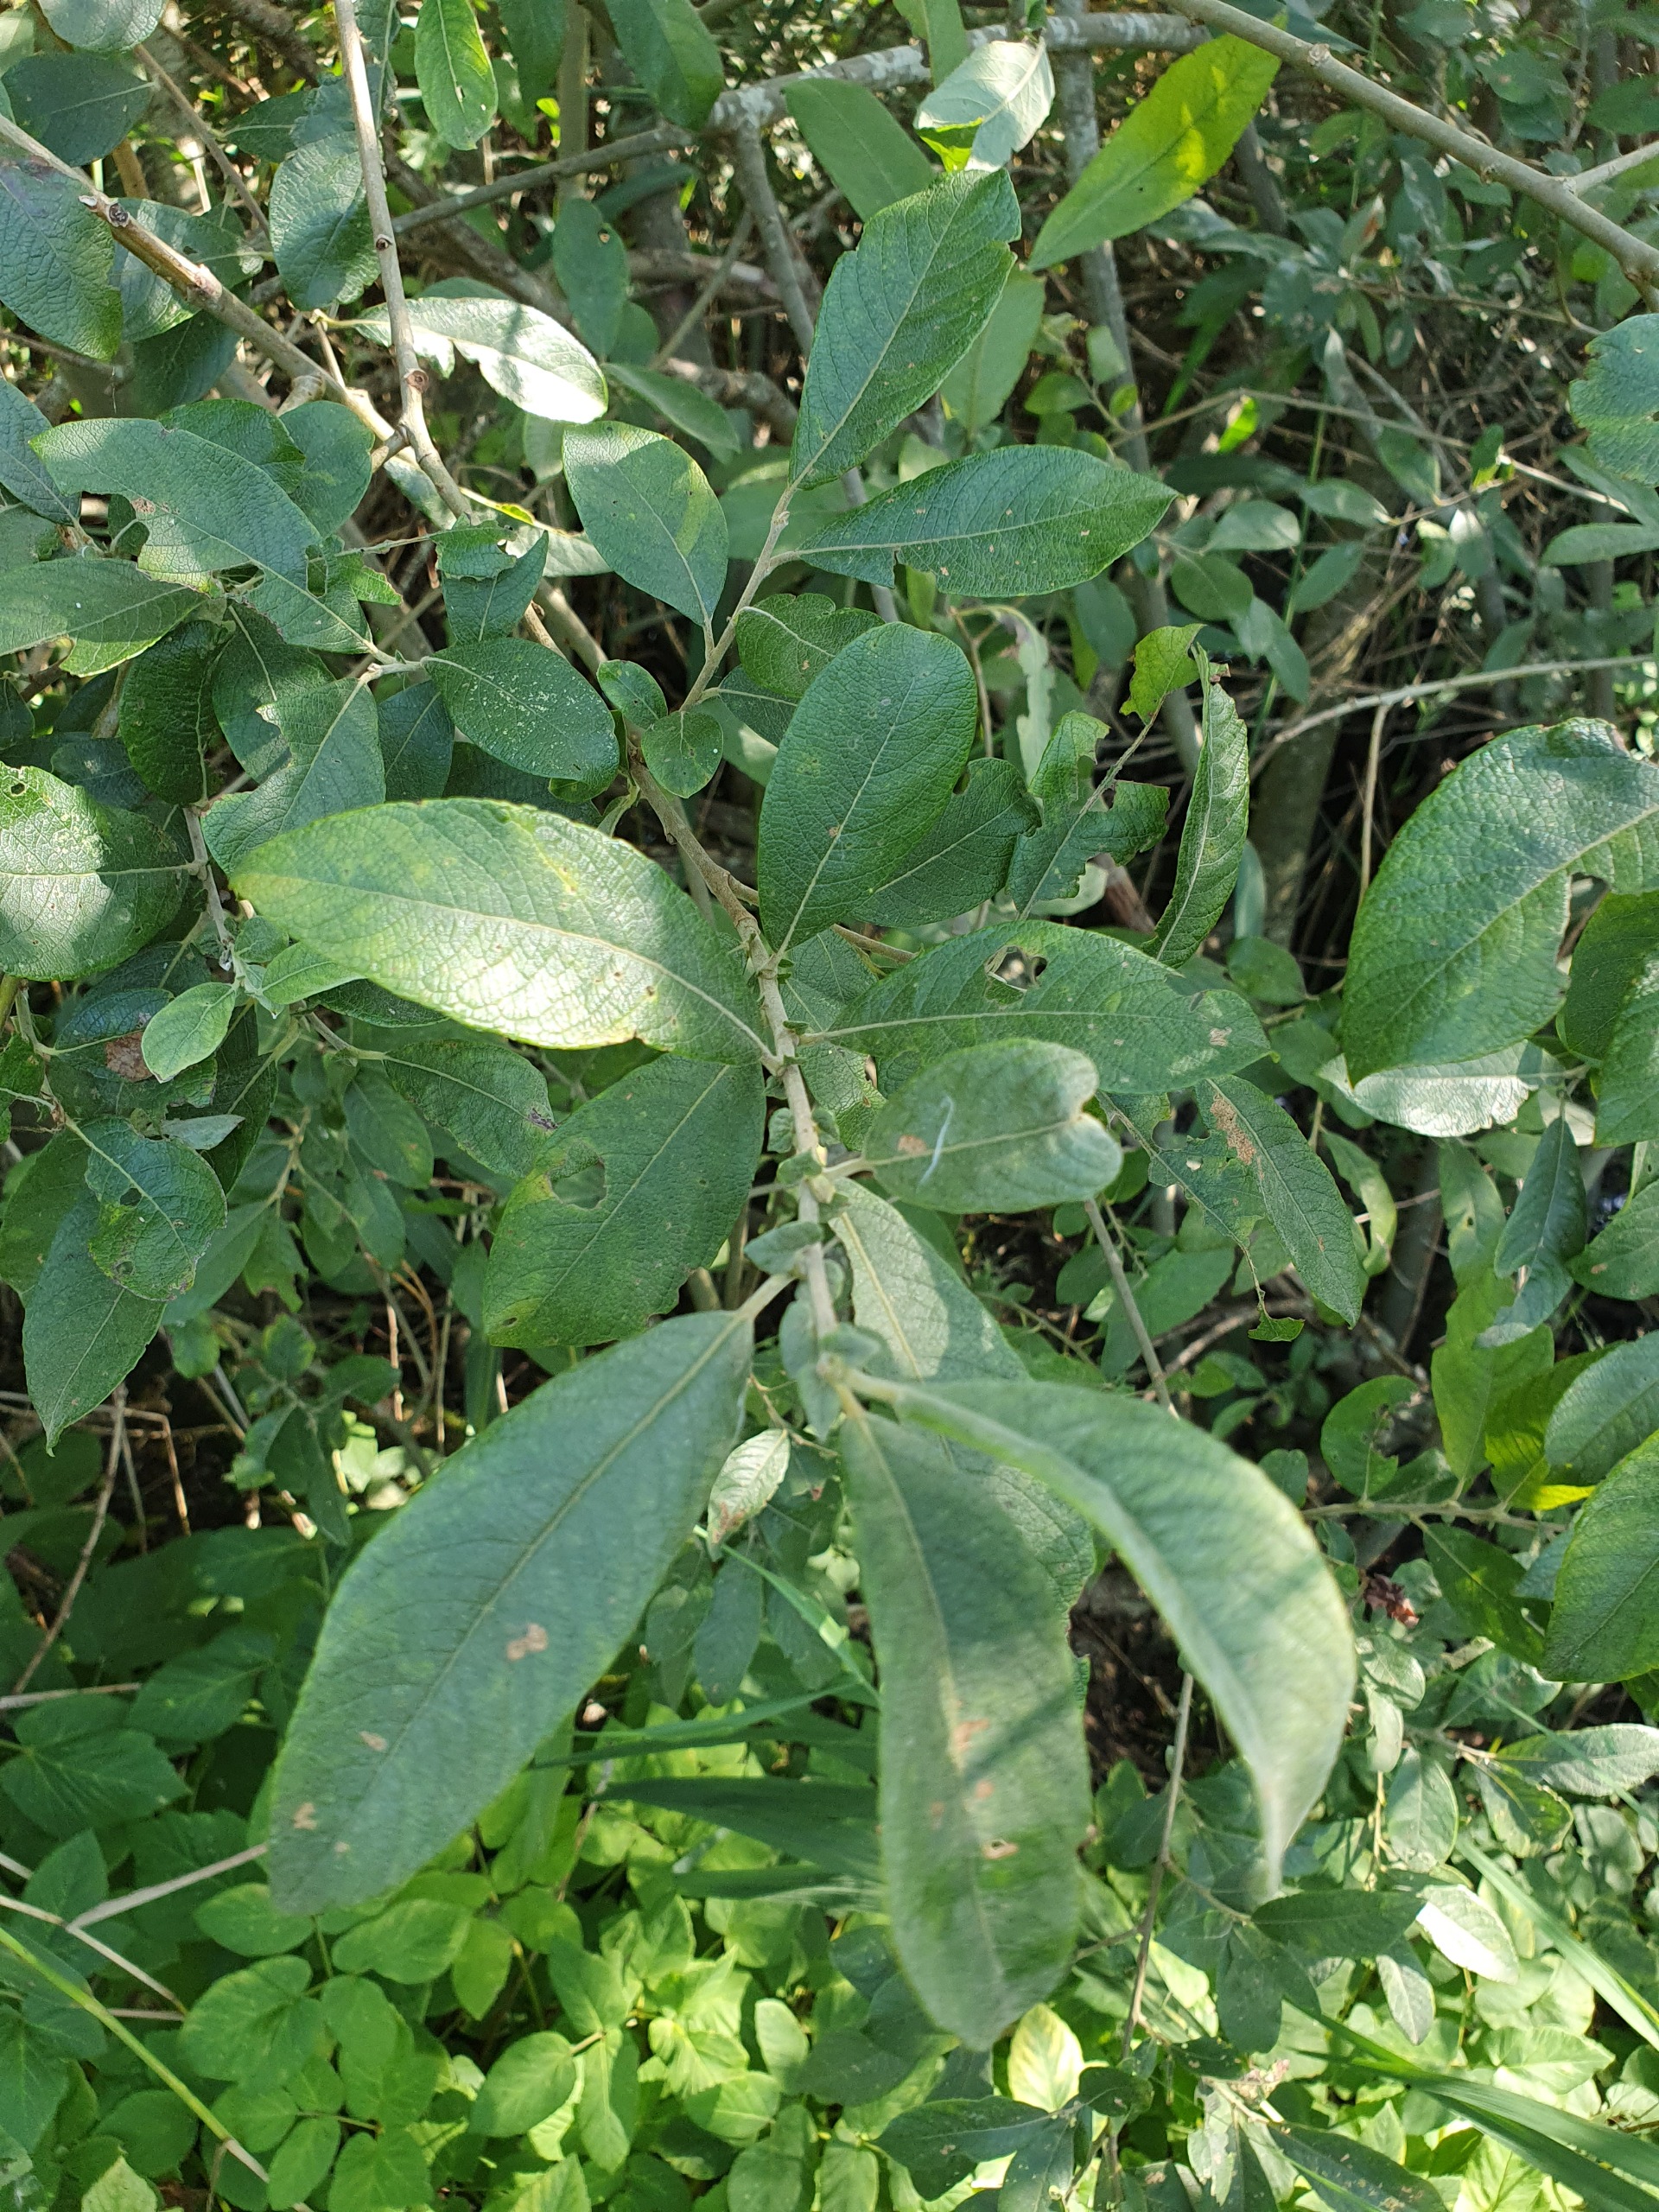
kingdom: Plantae
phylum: Tracheophyta
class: Magnoliopsida
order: Malpighiales
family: Salicaceae
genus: Salix
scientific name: Salix cinerea
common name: Grå-pil
